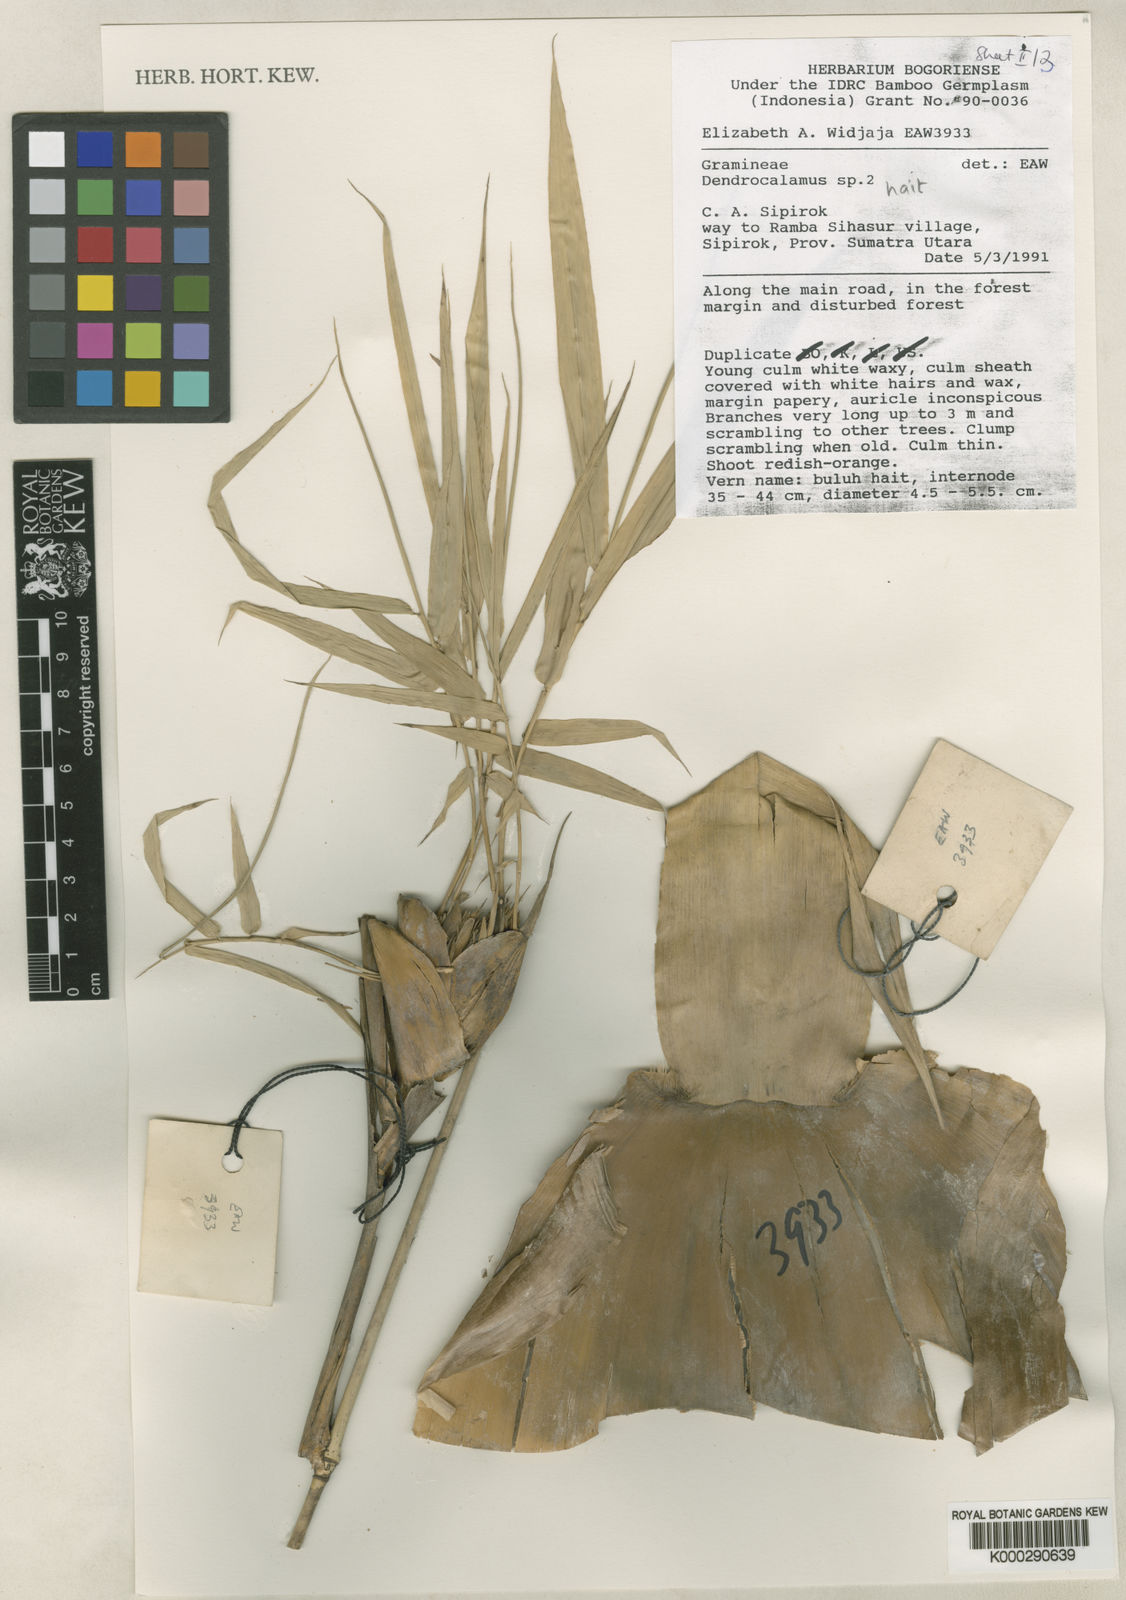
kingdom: Plantae
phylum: Tracheophyta
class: Liliopsida
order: Poales
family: Poaceae
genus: Dendrocalamus
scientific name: Dendrocalamus hait
